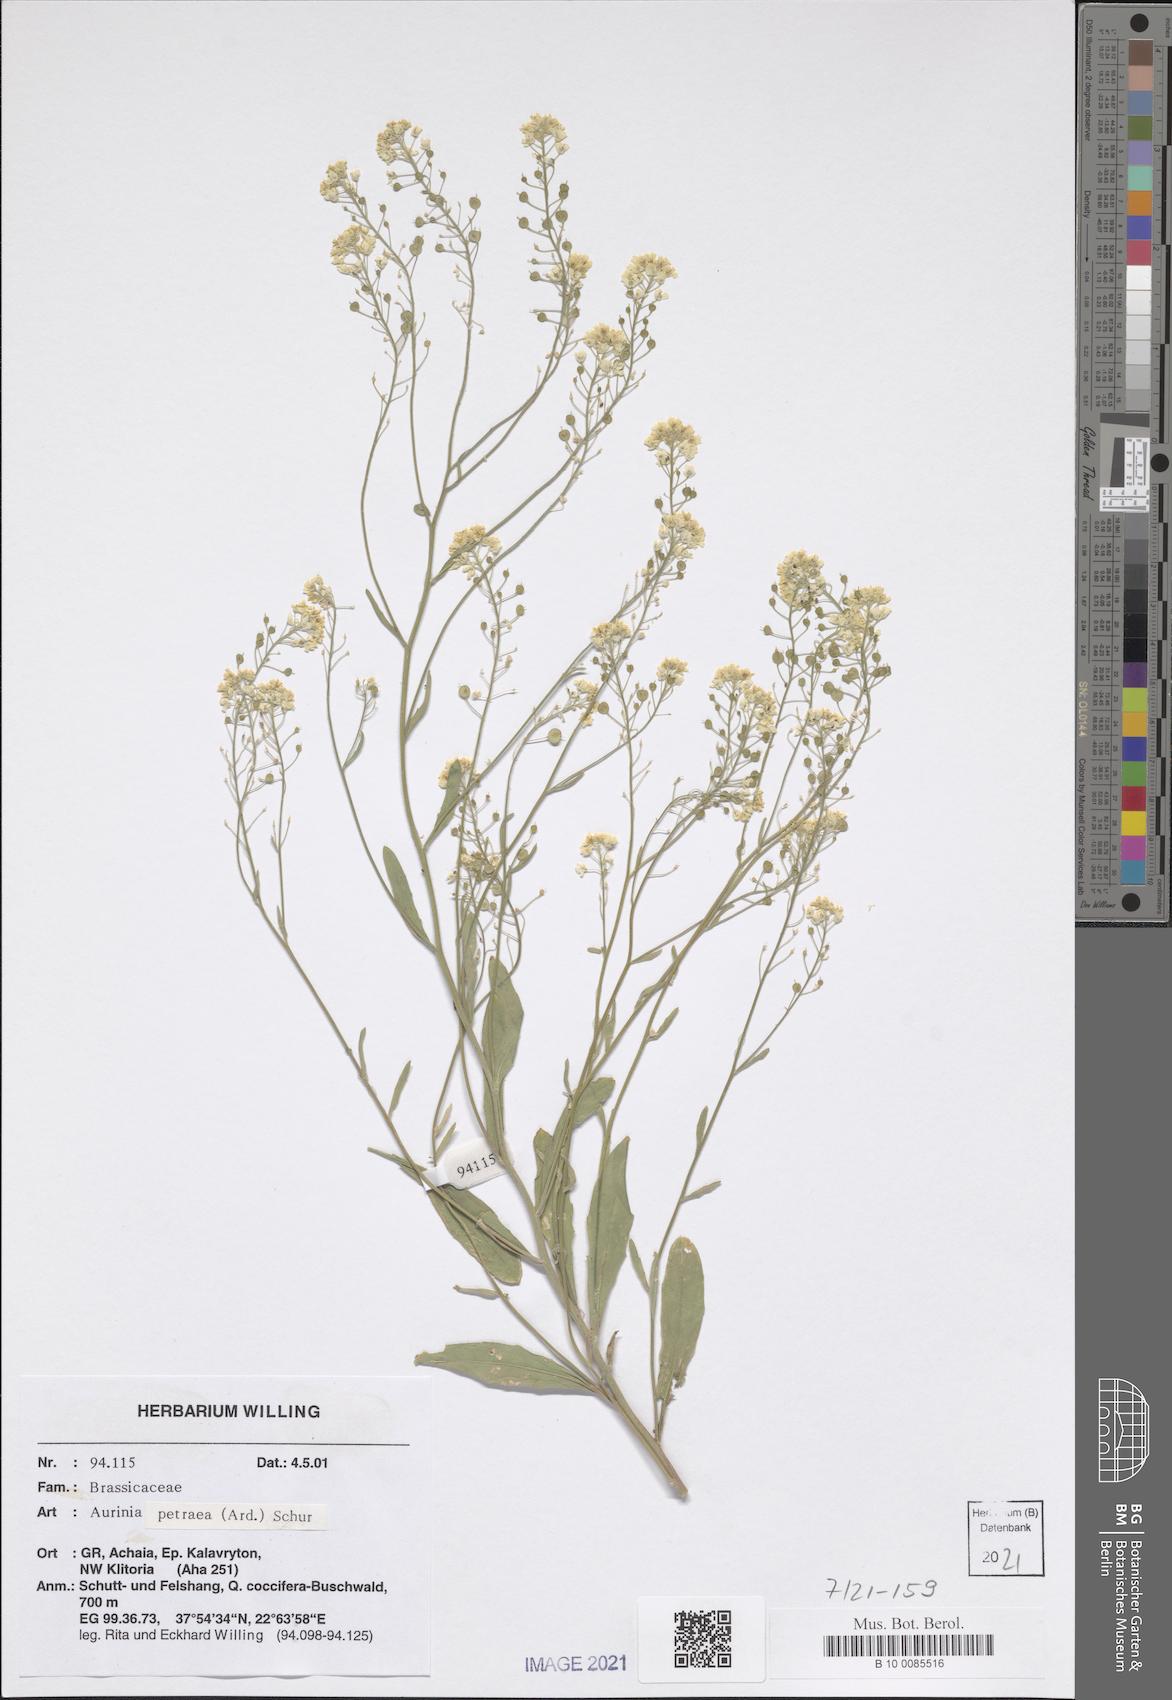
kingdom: Plantae
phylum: Tracheophyta
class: Magnoliopsida
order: Brassicales
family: Brassicaceae
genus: Aurinia
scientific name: Aurinia petraea
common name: Goldentuft
